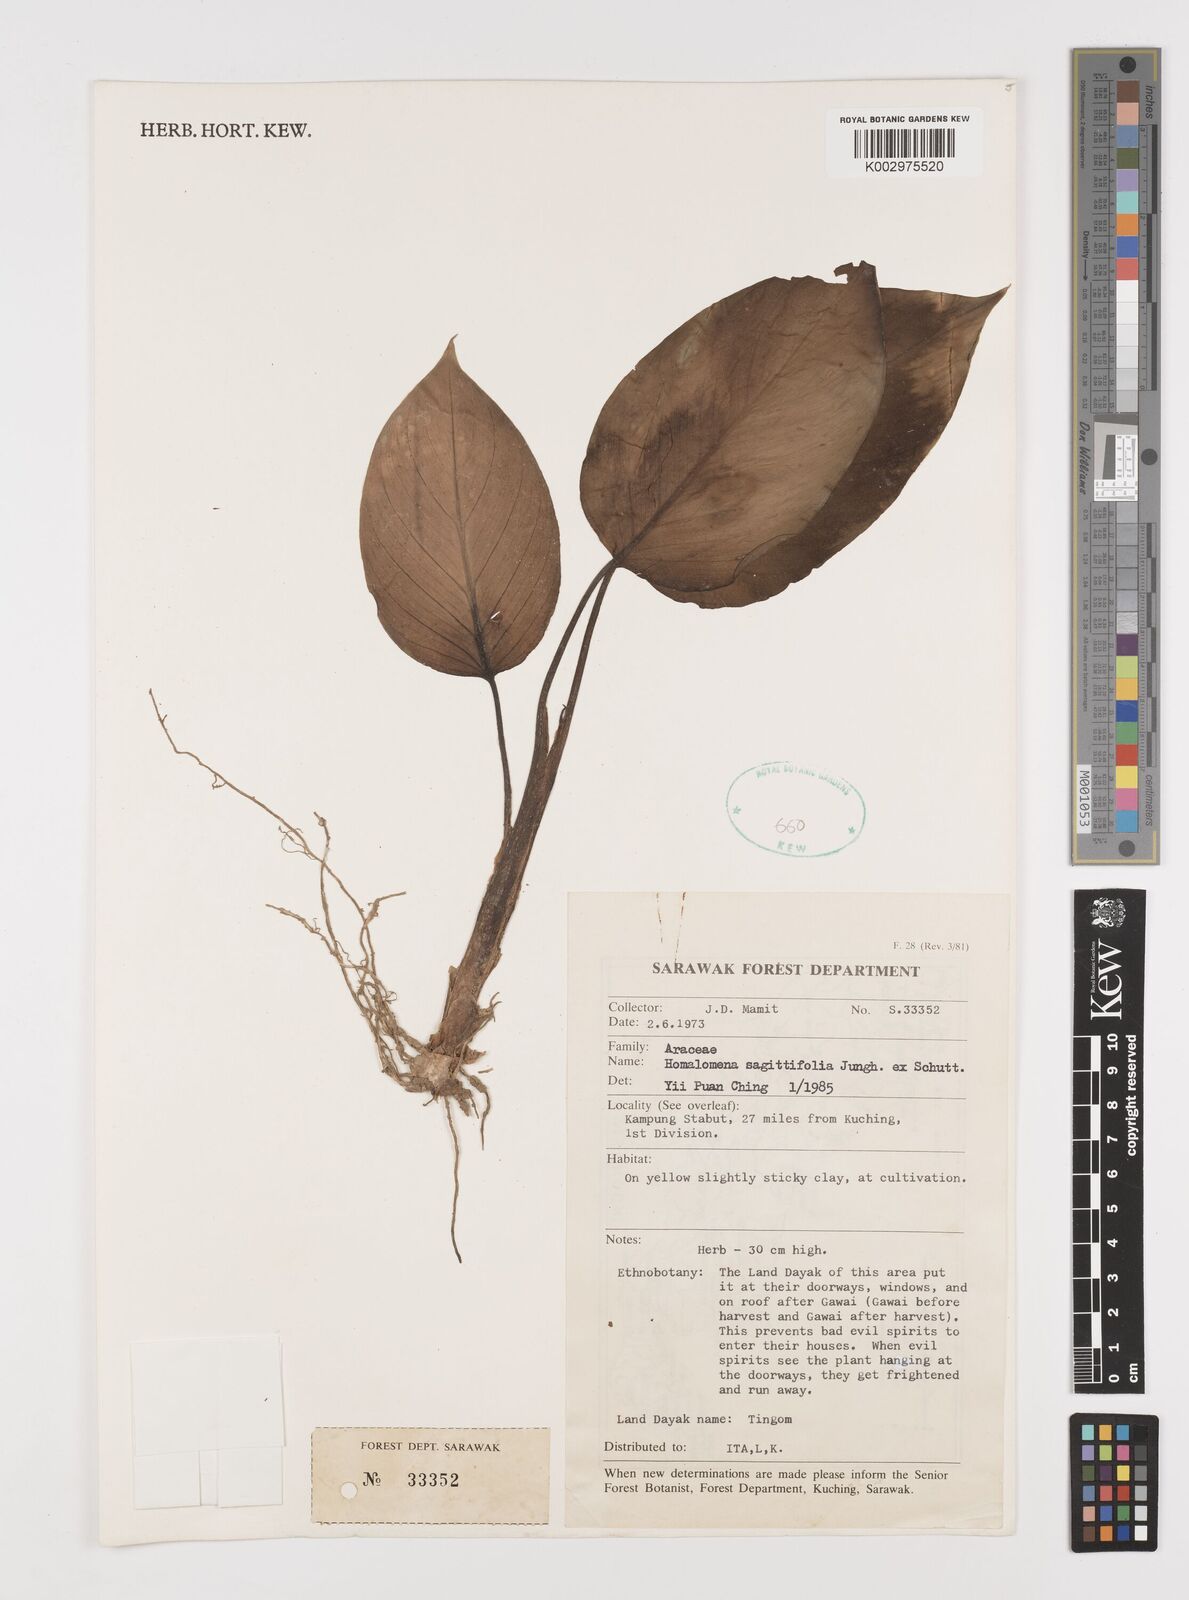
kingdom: Plantae
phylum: Tracheophyta
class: Liliopsida
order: Alismatales
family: Araceae
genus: Homalomena
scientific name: Homalomena rostrata
